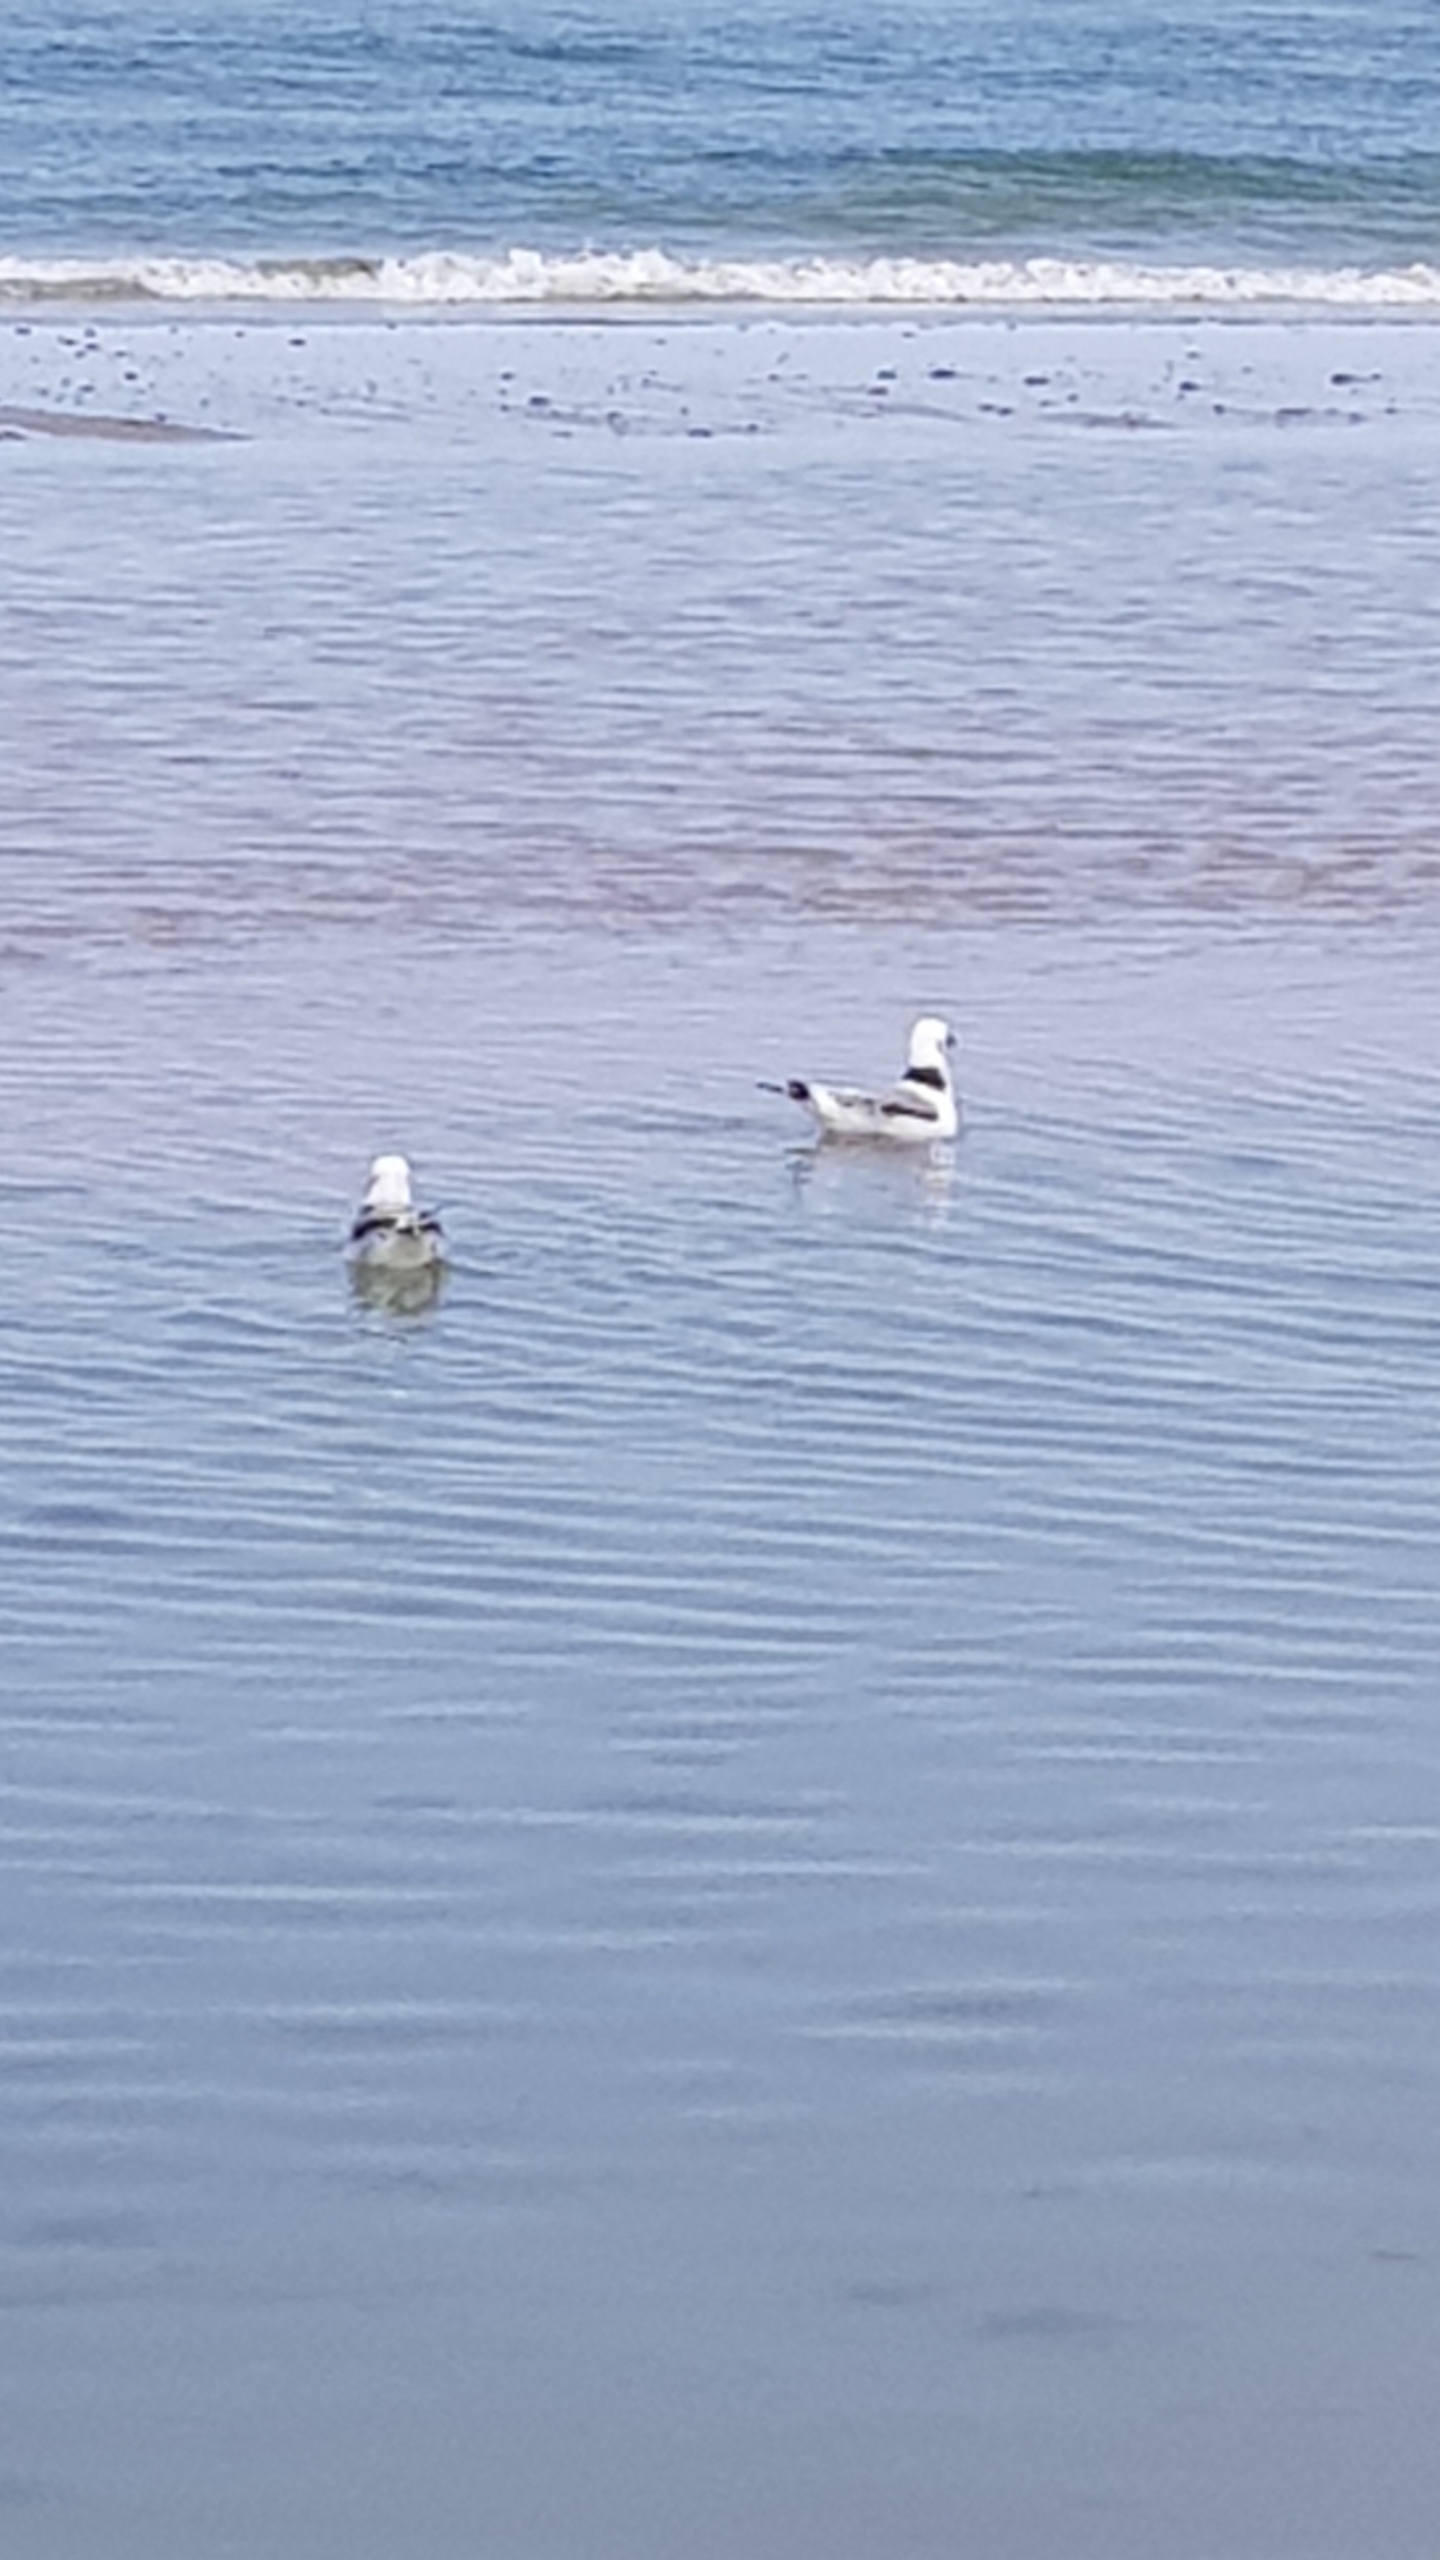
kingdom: Animalia
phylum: Chordata
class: Aves
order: Charadriiformes
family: Laridae
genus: Rissa
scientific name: Rissa tridactyla
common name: Ride
